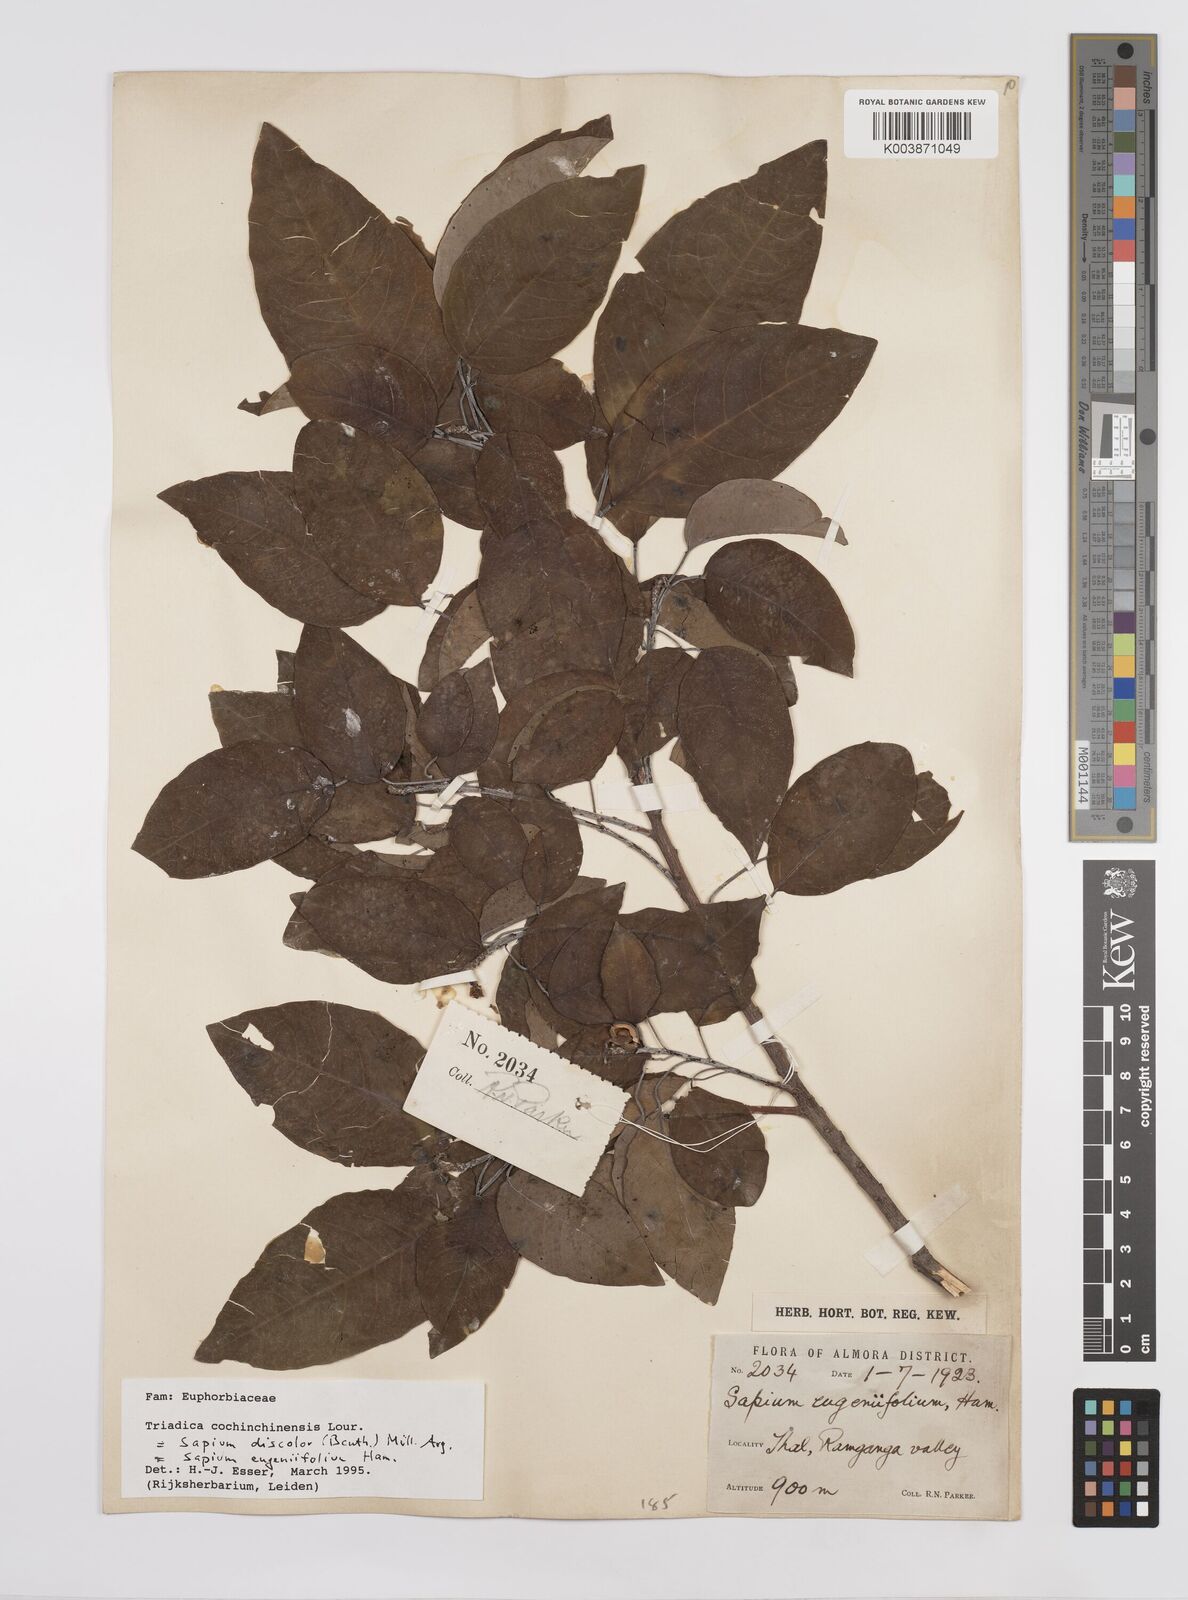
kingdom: Plantae
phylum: Tracheophyta
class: Magnoliopsida
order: Malpighiales
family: Euphorbiaceae
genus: Triadica
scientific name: Triadica cochinchinensis
